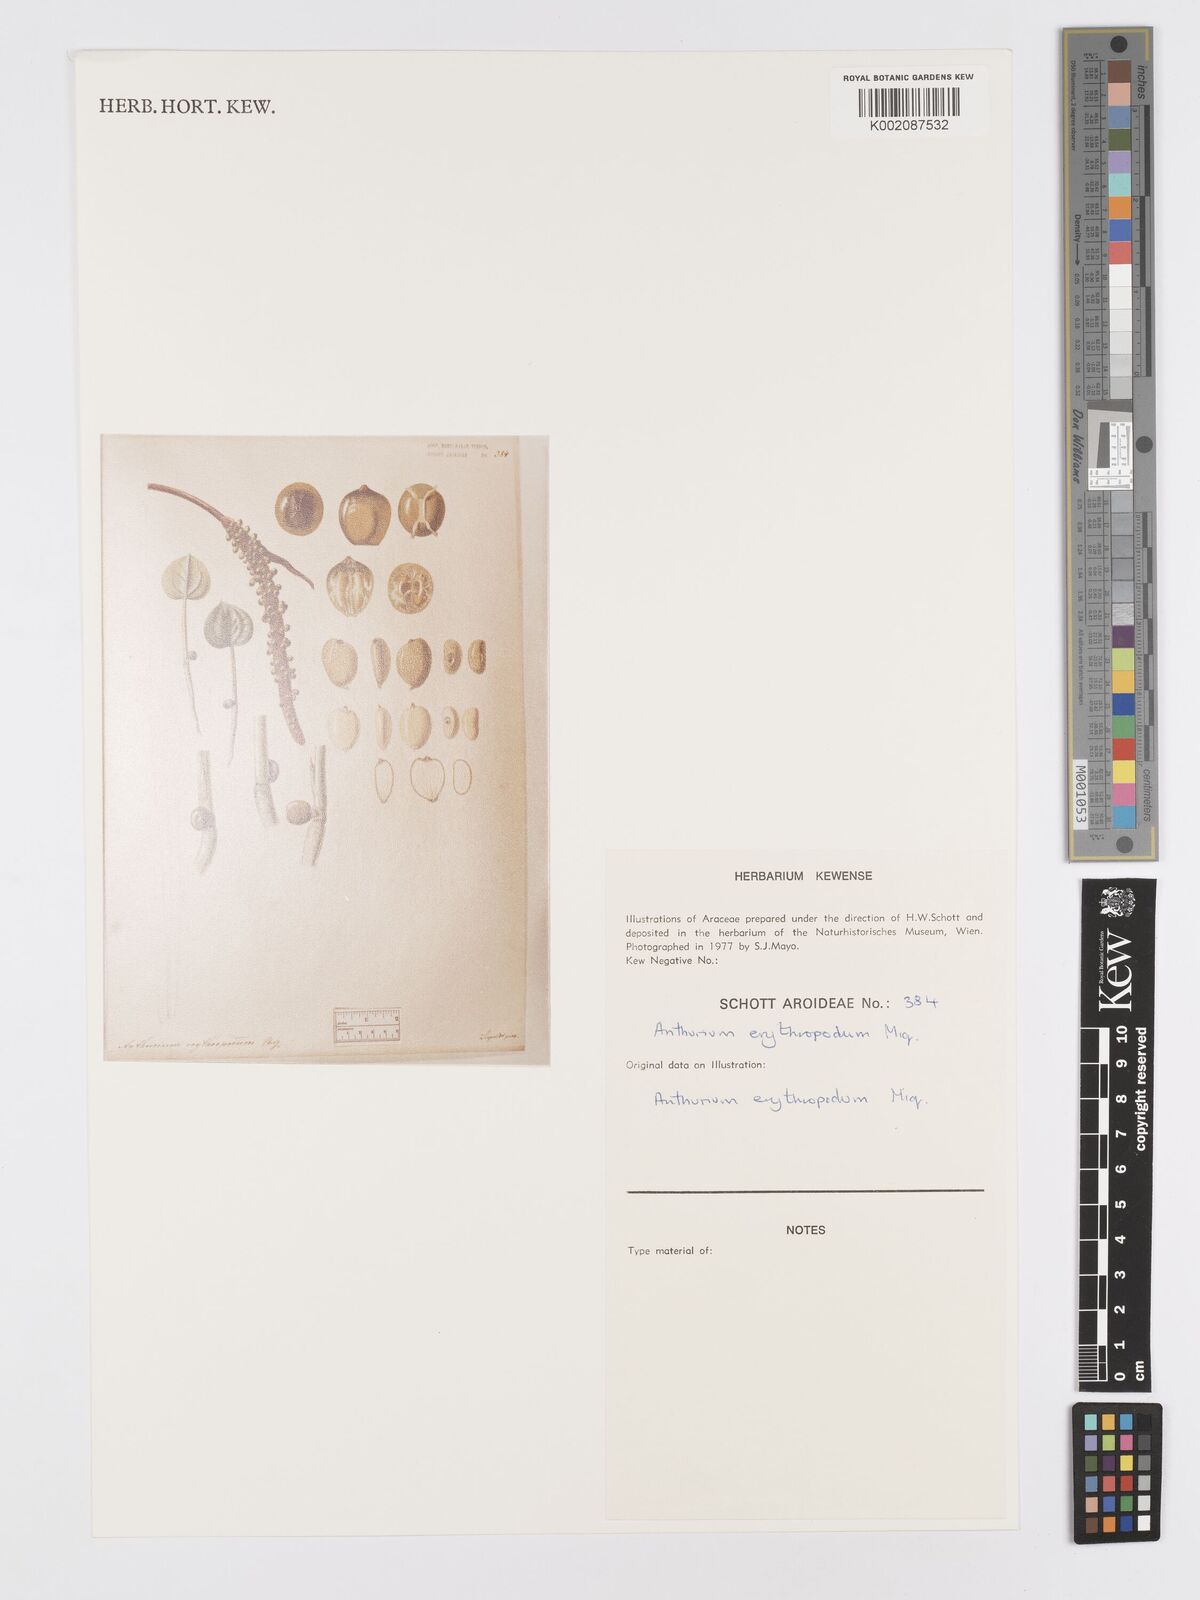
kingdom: Plantae
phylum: Tracheophyta
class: Liliopsida
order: Alismatales
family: Araceae
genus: Anthurium
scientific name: Anthurium intermedium
